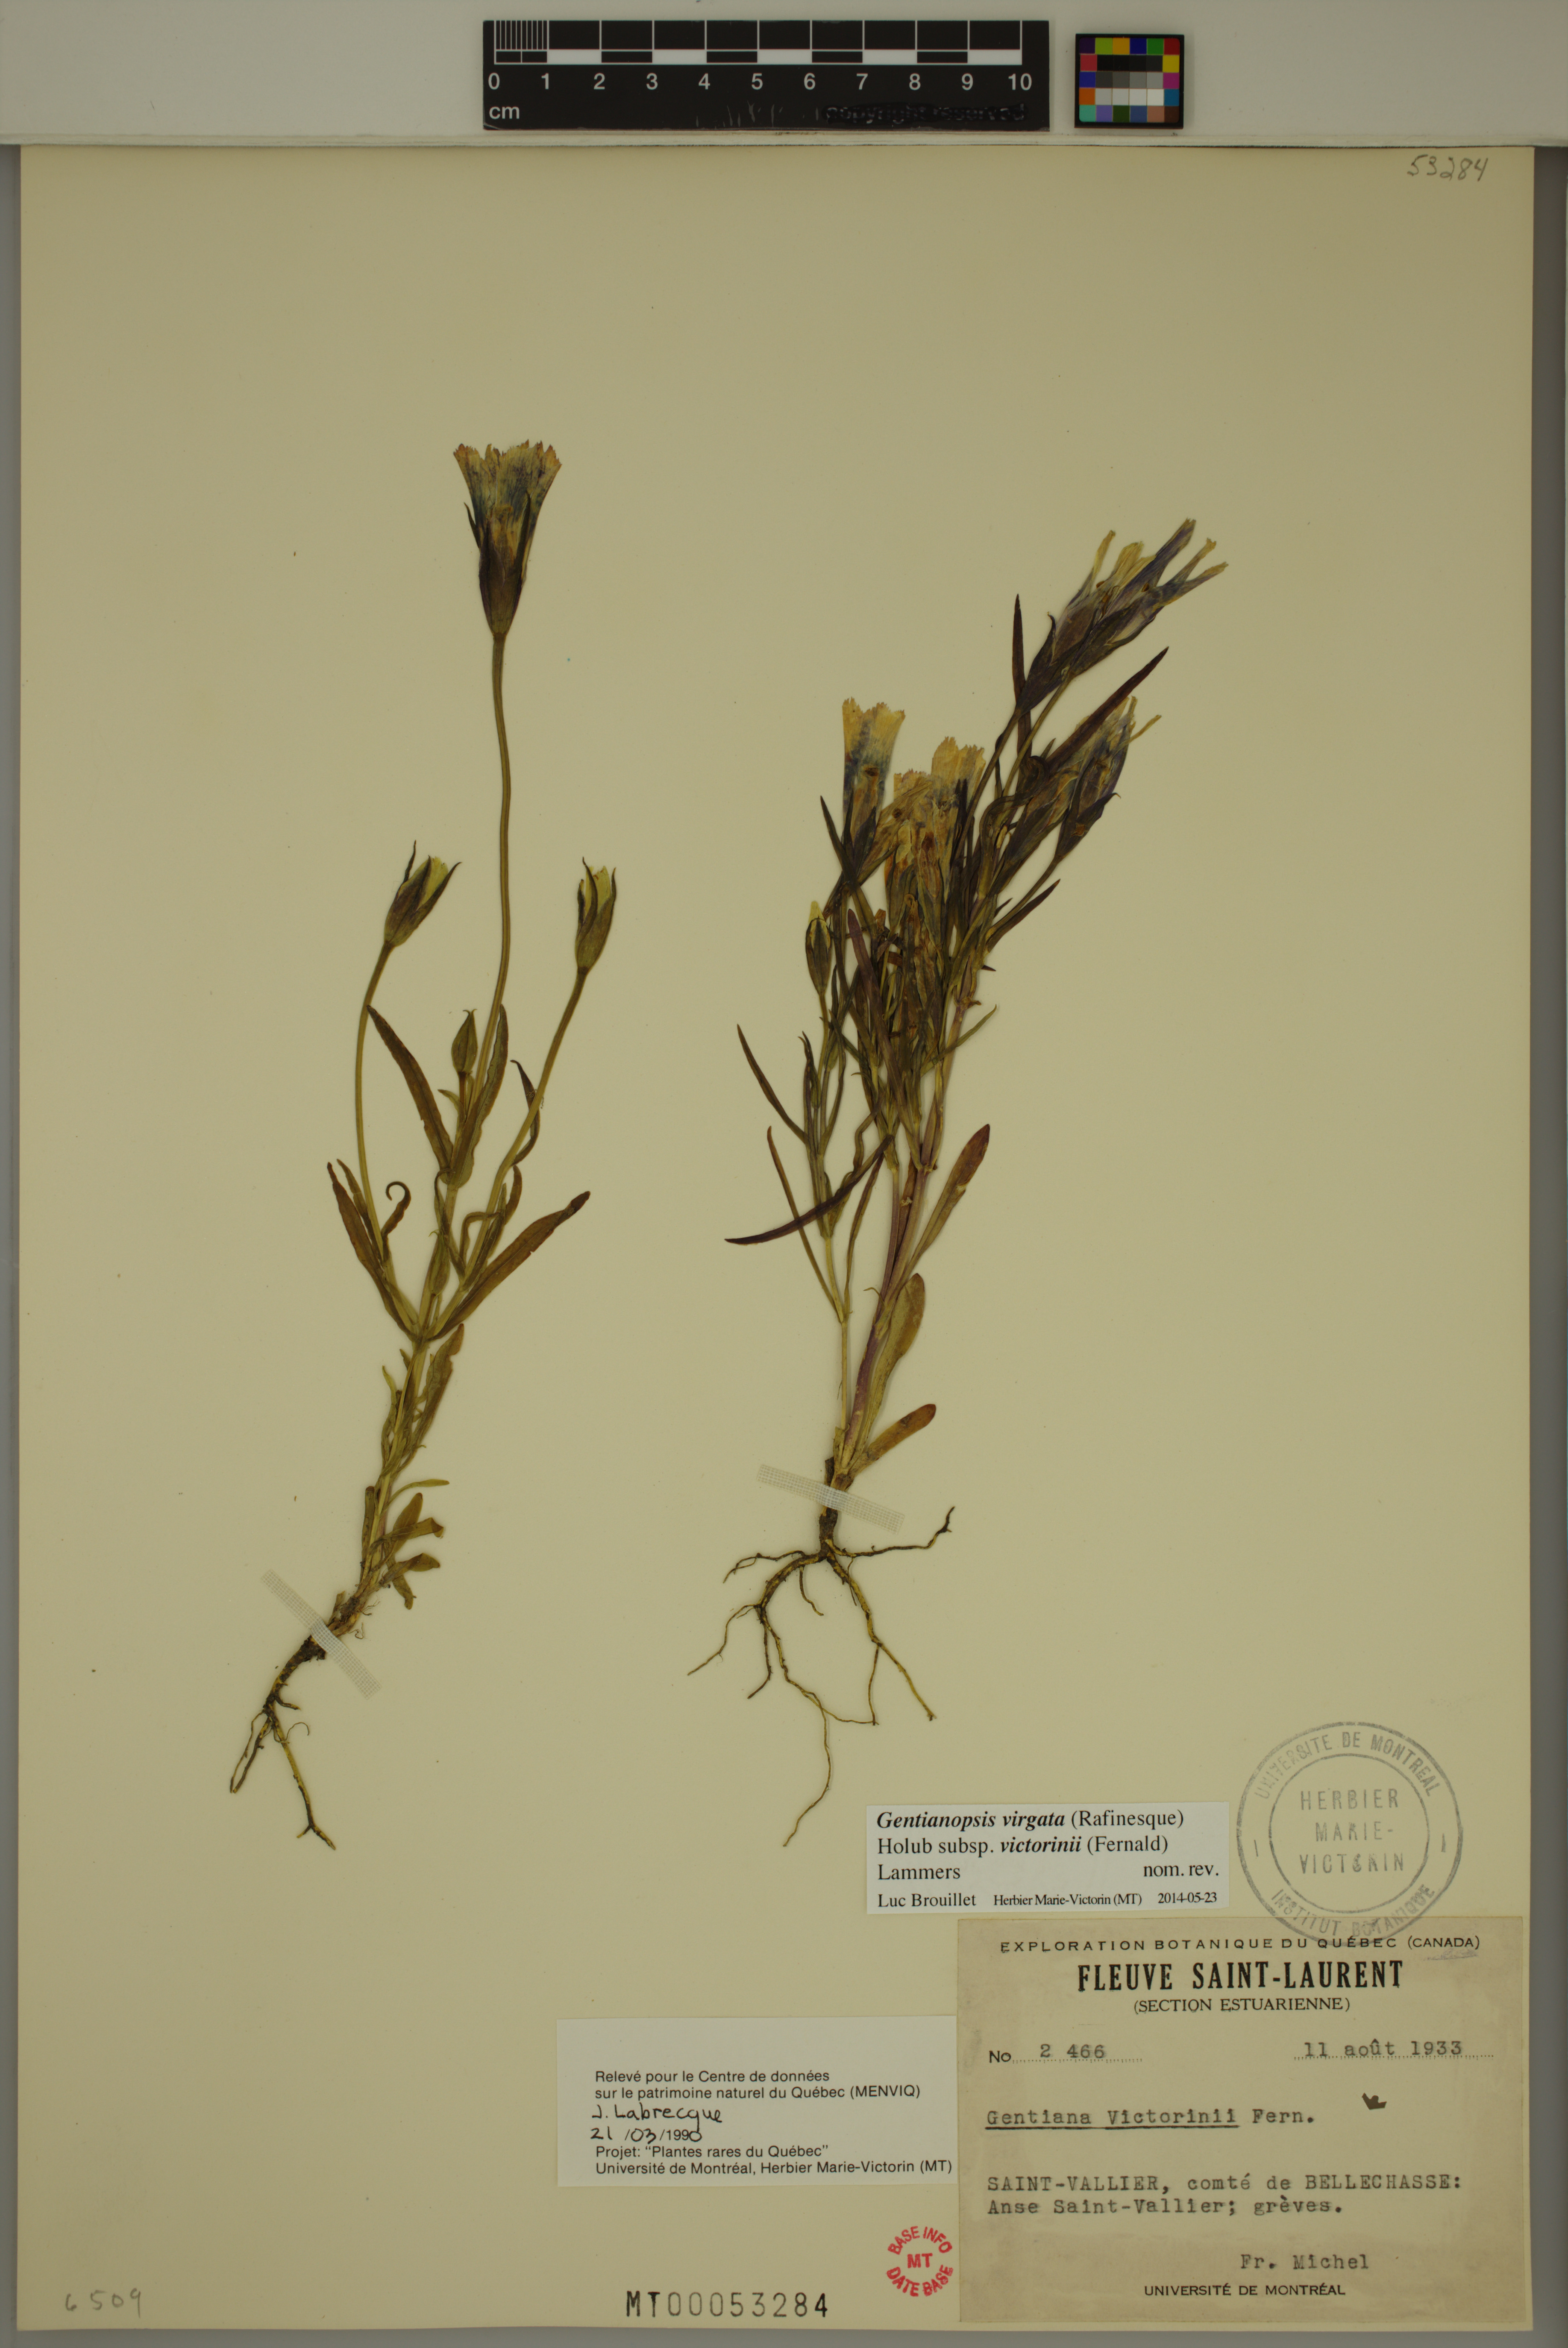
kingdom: Plantae
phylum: Tracheophyta
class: Magnoliopsida
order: Gentianales
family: Gentianaceae
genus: Gentianopsis
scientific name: Gentianopsis victorinii
